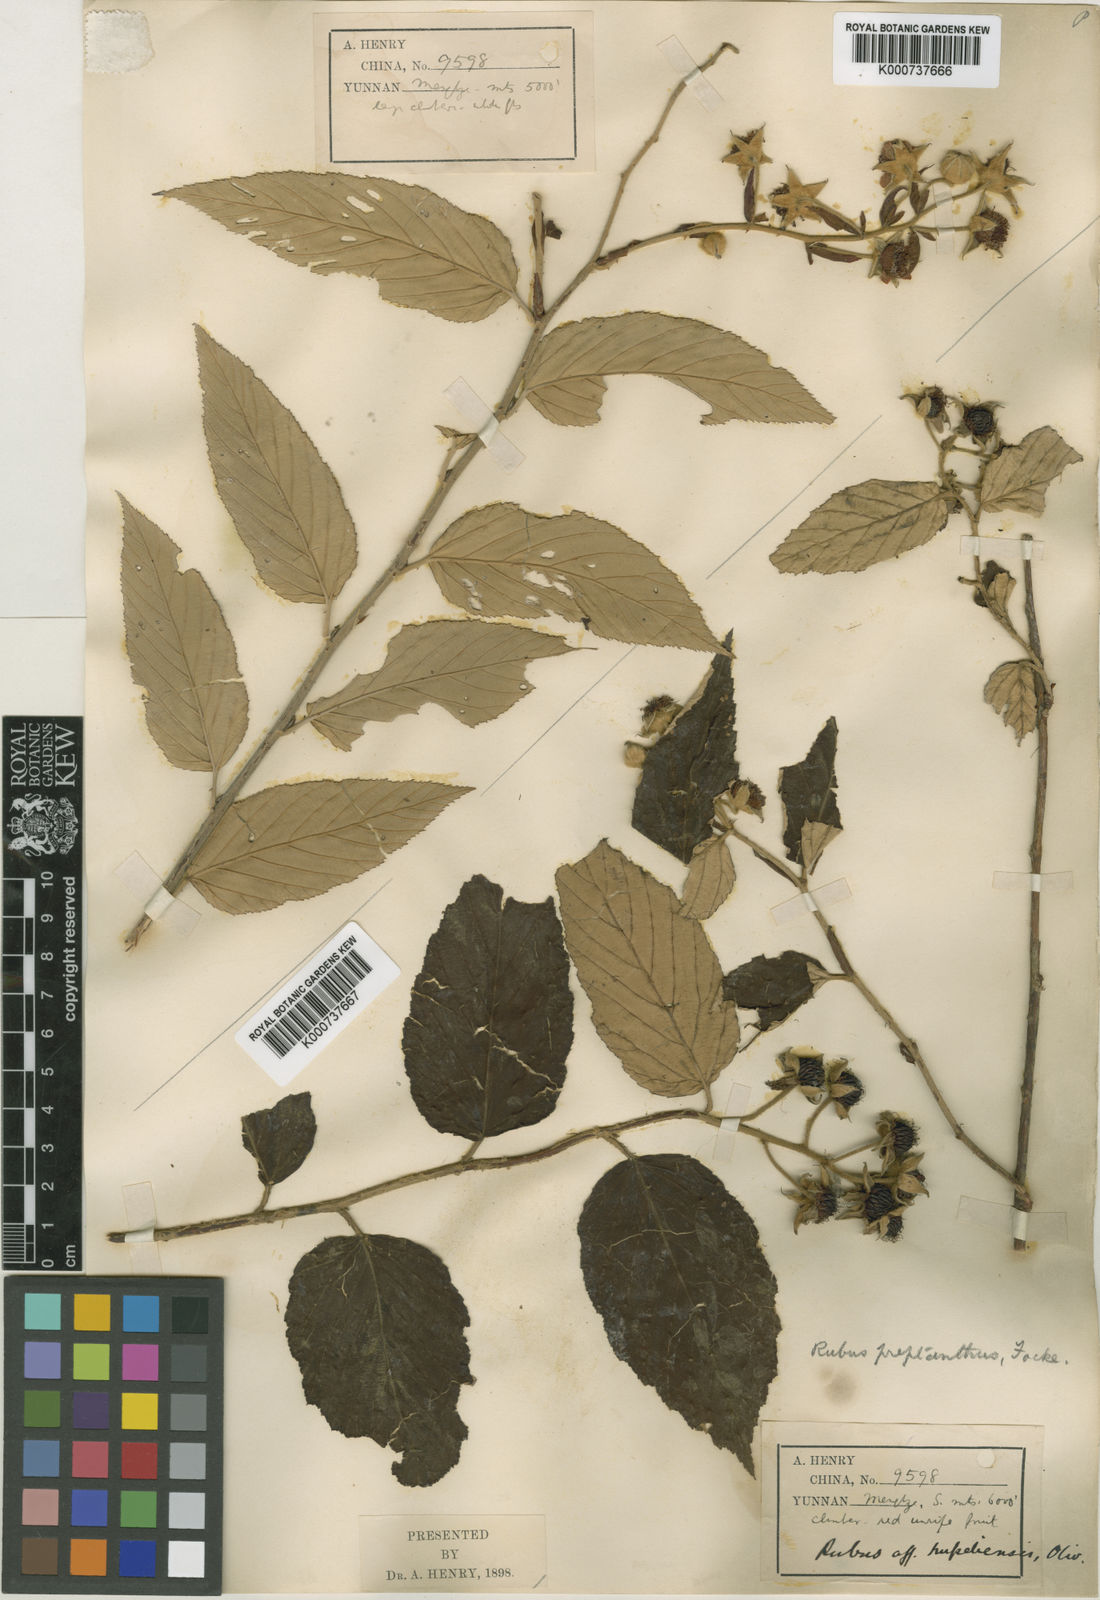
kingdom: Plantae
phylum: Tracheophyta
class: Magnoliopsida
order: Rosales
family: Rosaceae
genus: Rubus
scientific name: Rubus preptanthus
